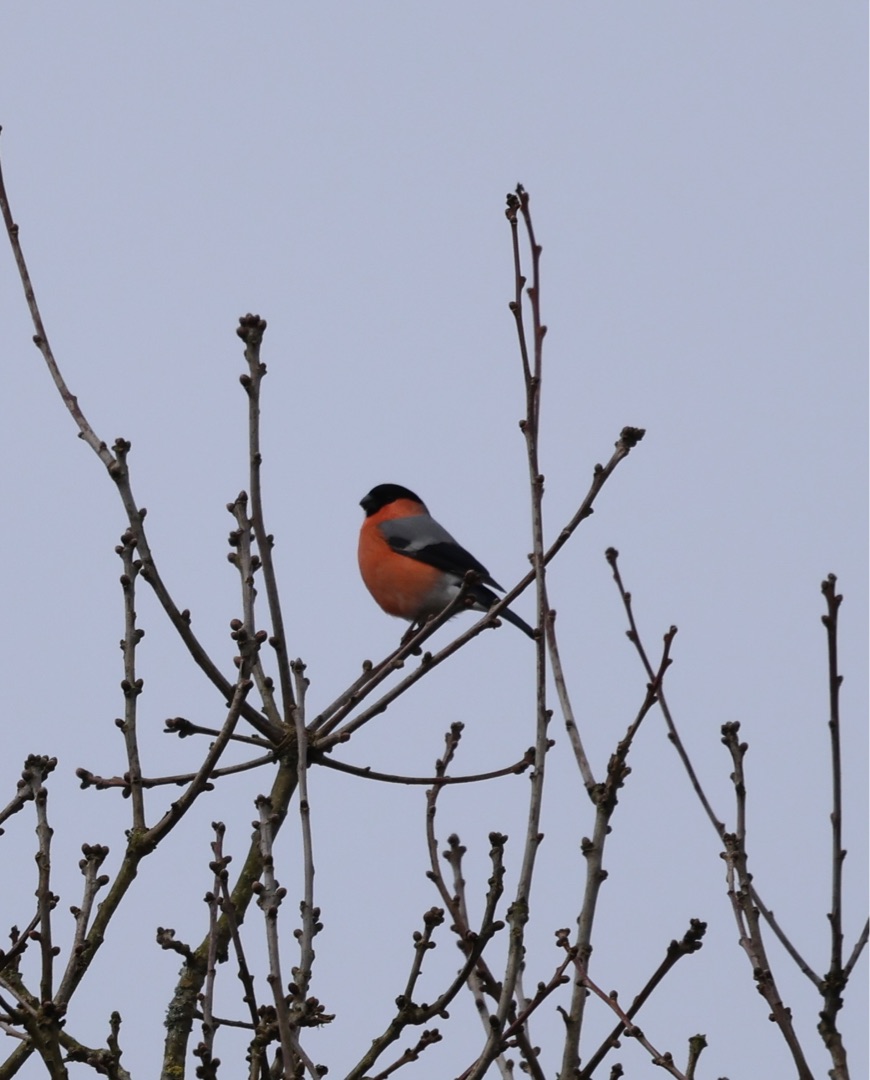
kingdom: Animalia
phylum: Chordata
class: Aves
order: Passeriformes
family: Fringillidae
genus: Pyrrhula
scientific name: Pyrrhula pyrrhula
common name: Dompap
